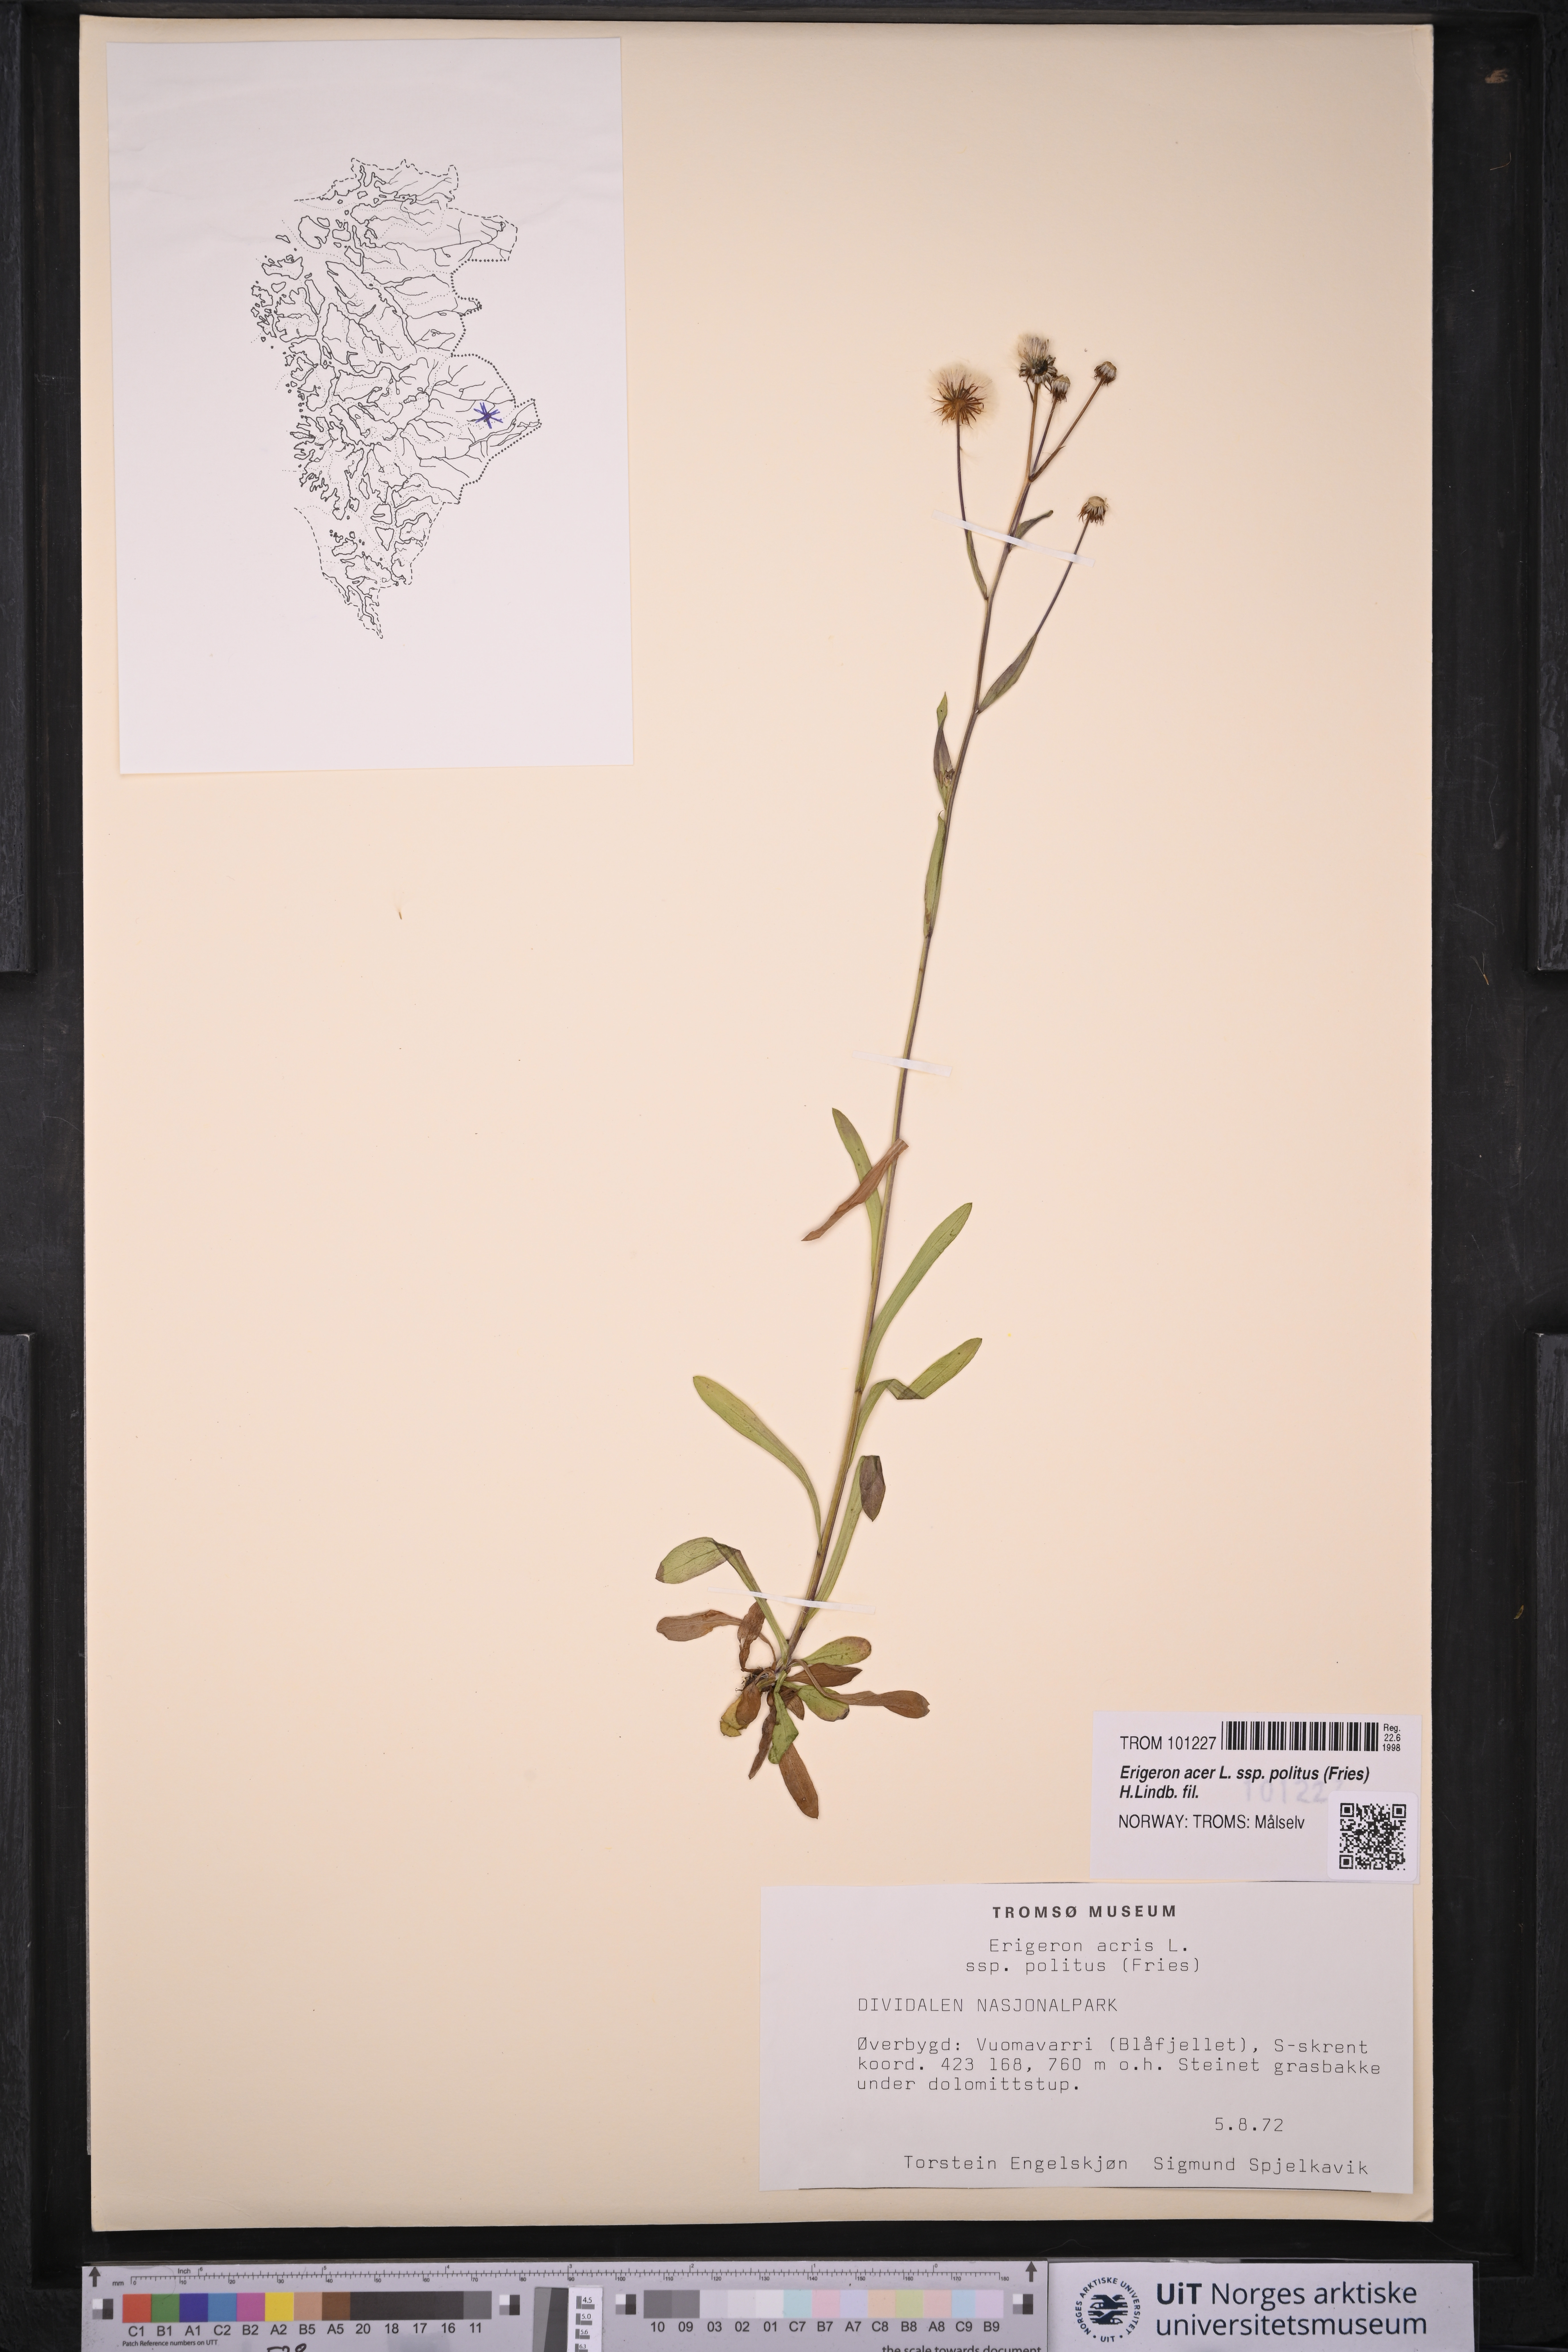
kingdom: Plantae
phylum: Tracheophyta
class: Magnoliopsida
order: Asterales
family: Asteraceae
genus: Erigeron
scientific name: Erigeron politus
